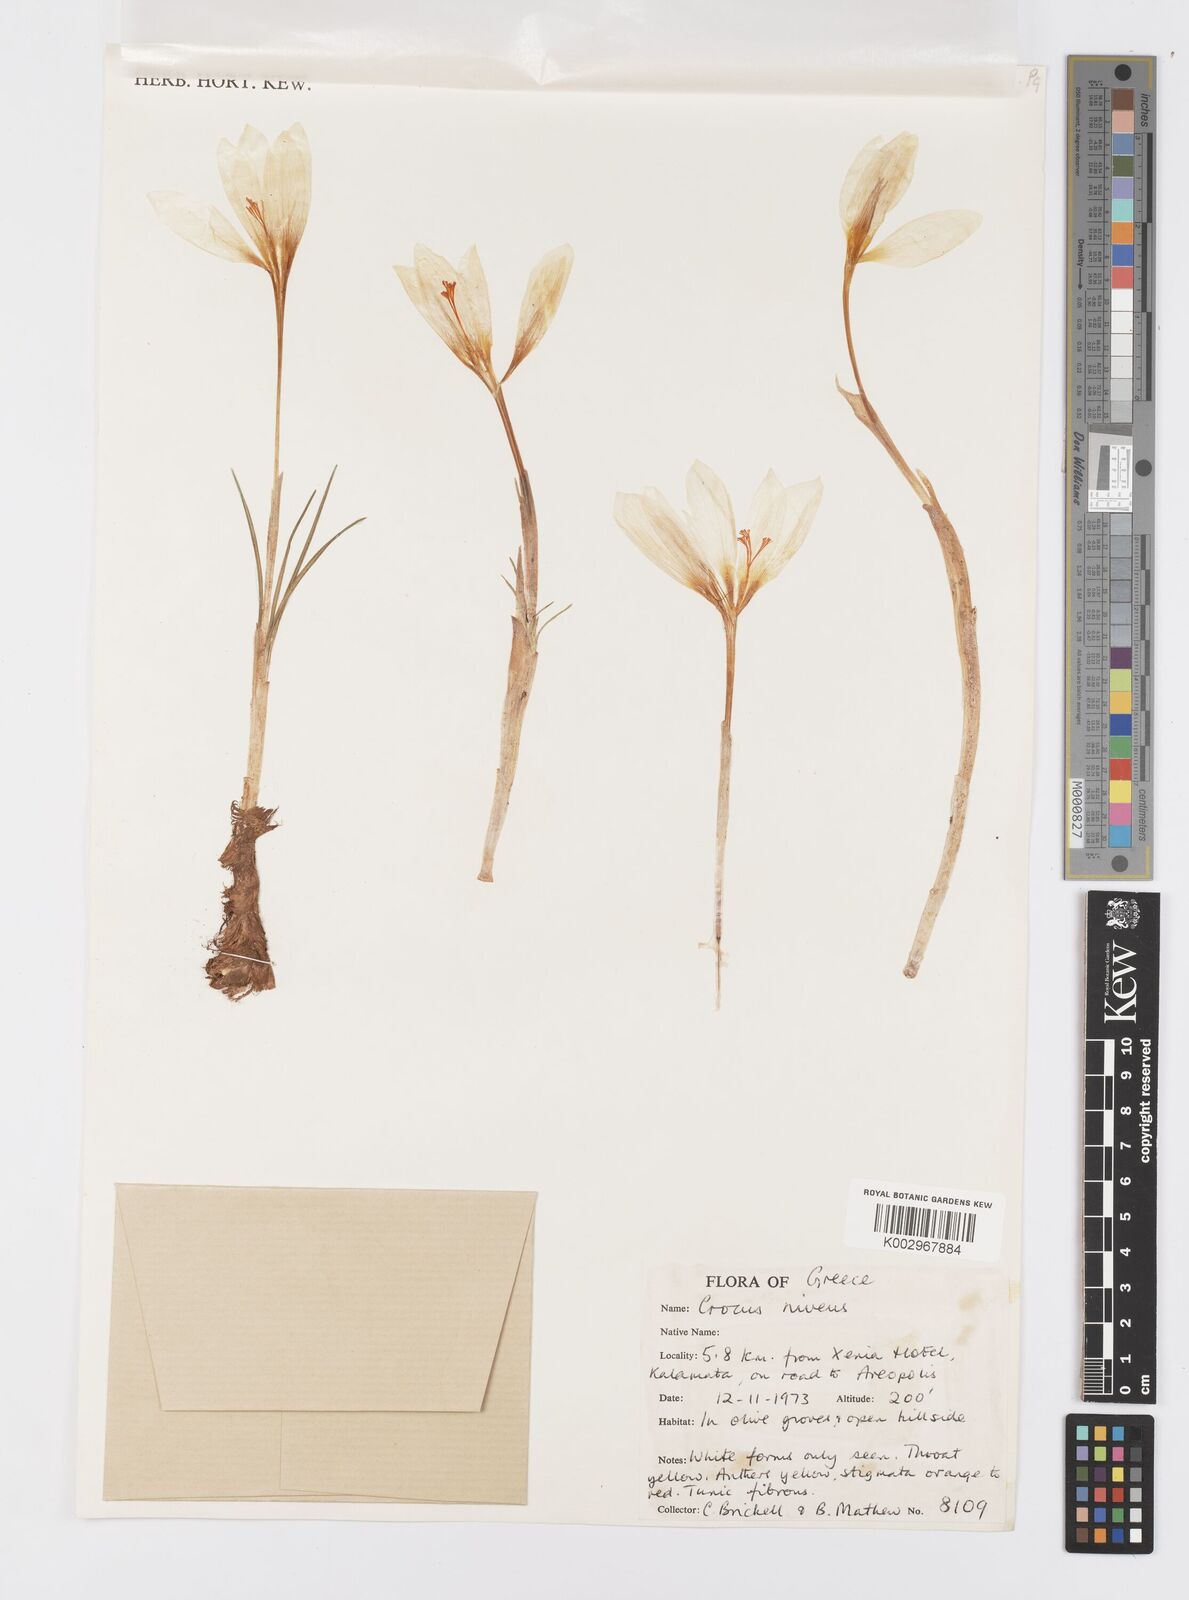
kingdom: Plantae
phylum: Tracheophyta
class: Liliopsida
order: Asparagales
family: Iridaceae
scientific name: Iridaceae
